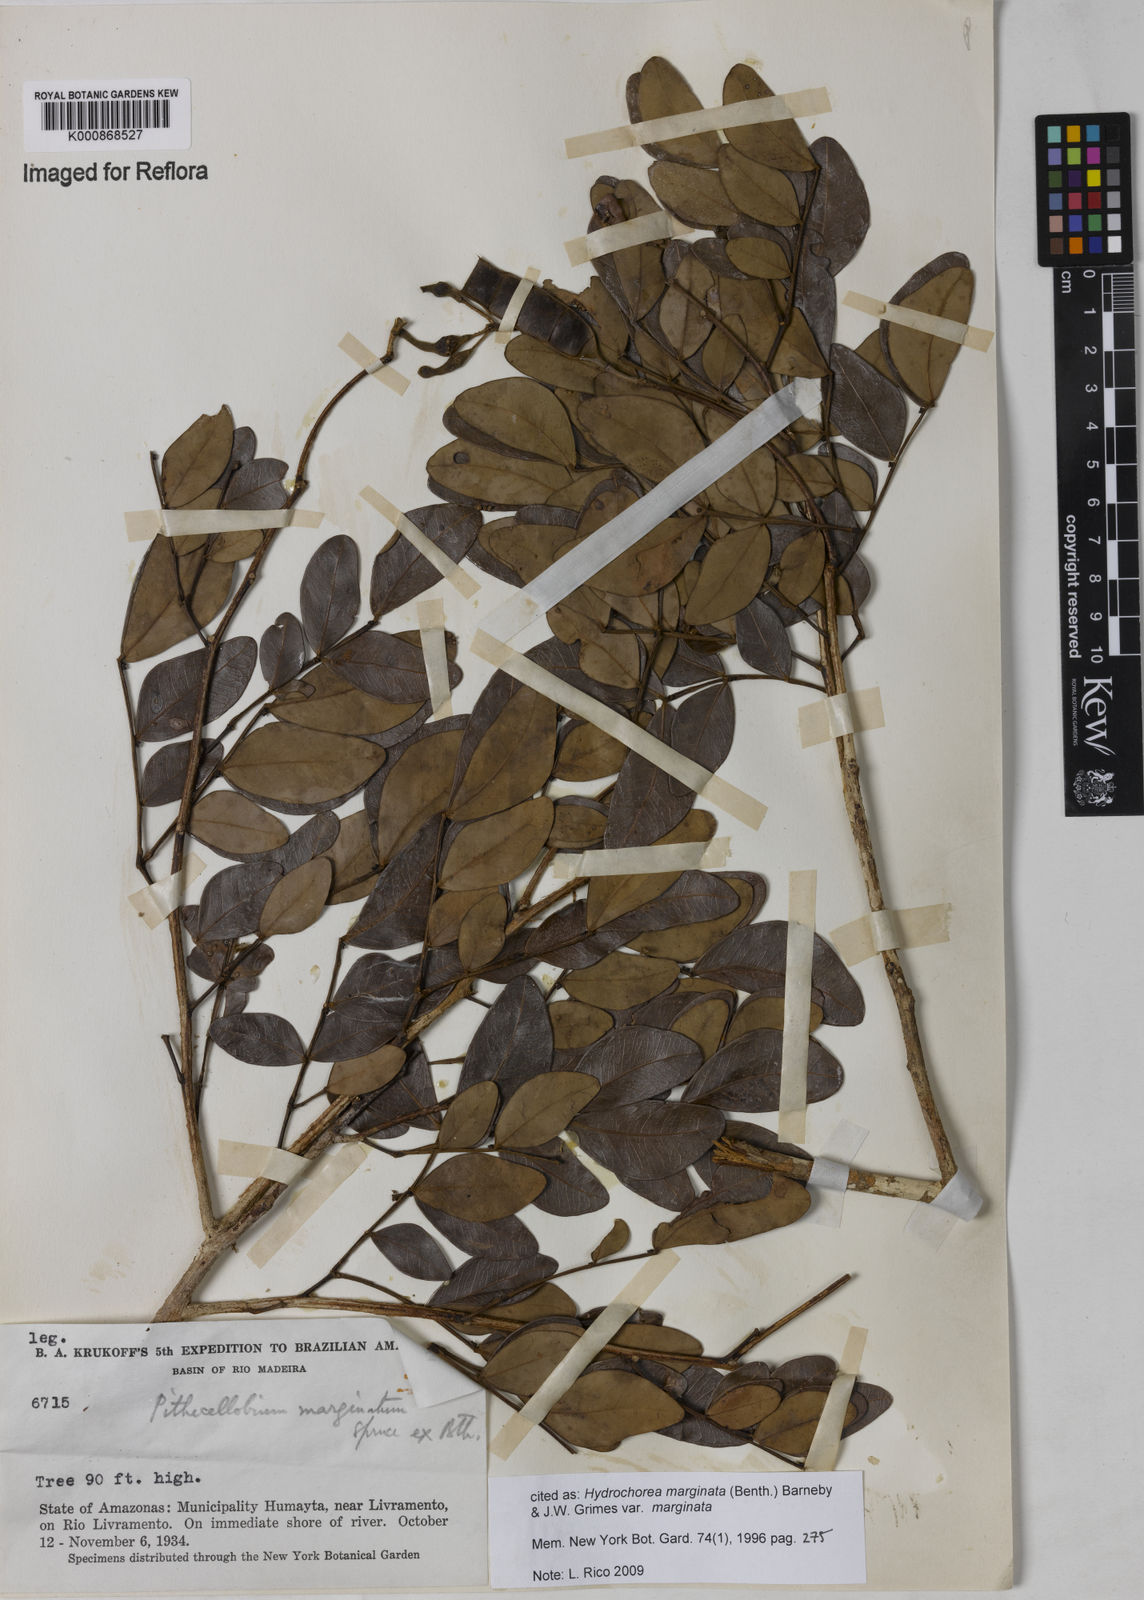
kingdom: Plantae
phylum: Tracheophyta
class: Magnoliopsida
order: Fabales
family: Fabaceae
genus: Hydrochorea
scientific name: Hydrochorea marginata
